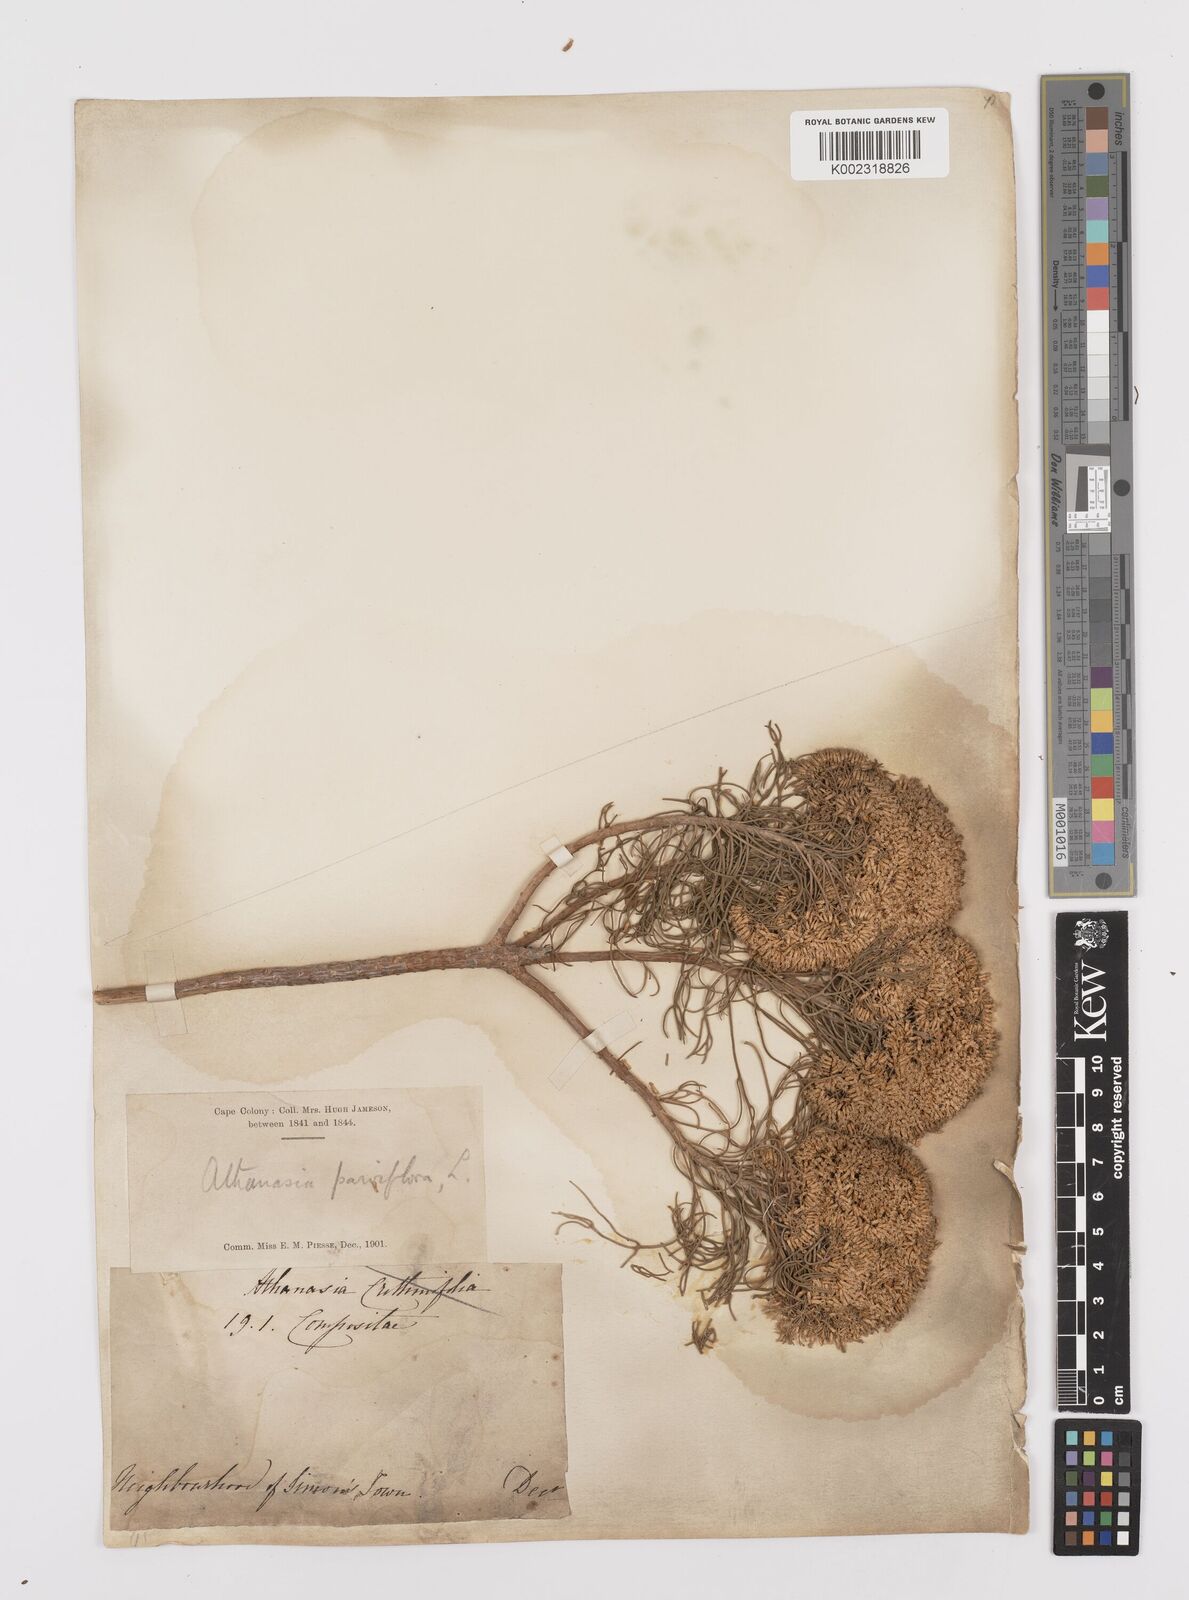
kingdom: Plantae
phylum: Tracheophyta
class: Magnoliopsida
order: Asterales
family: Asteraceae
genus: Hymenolepis
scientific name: Hymenolepis crithmifolia
